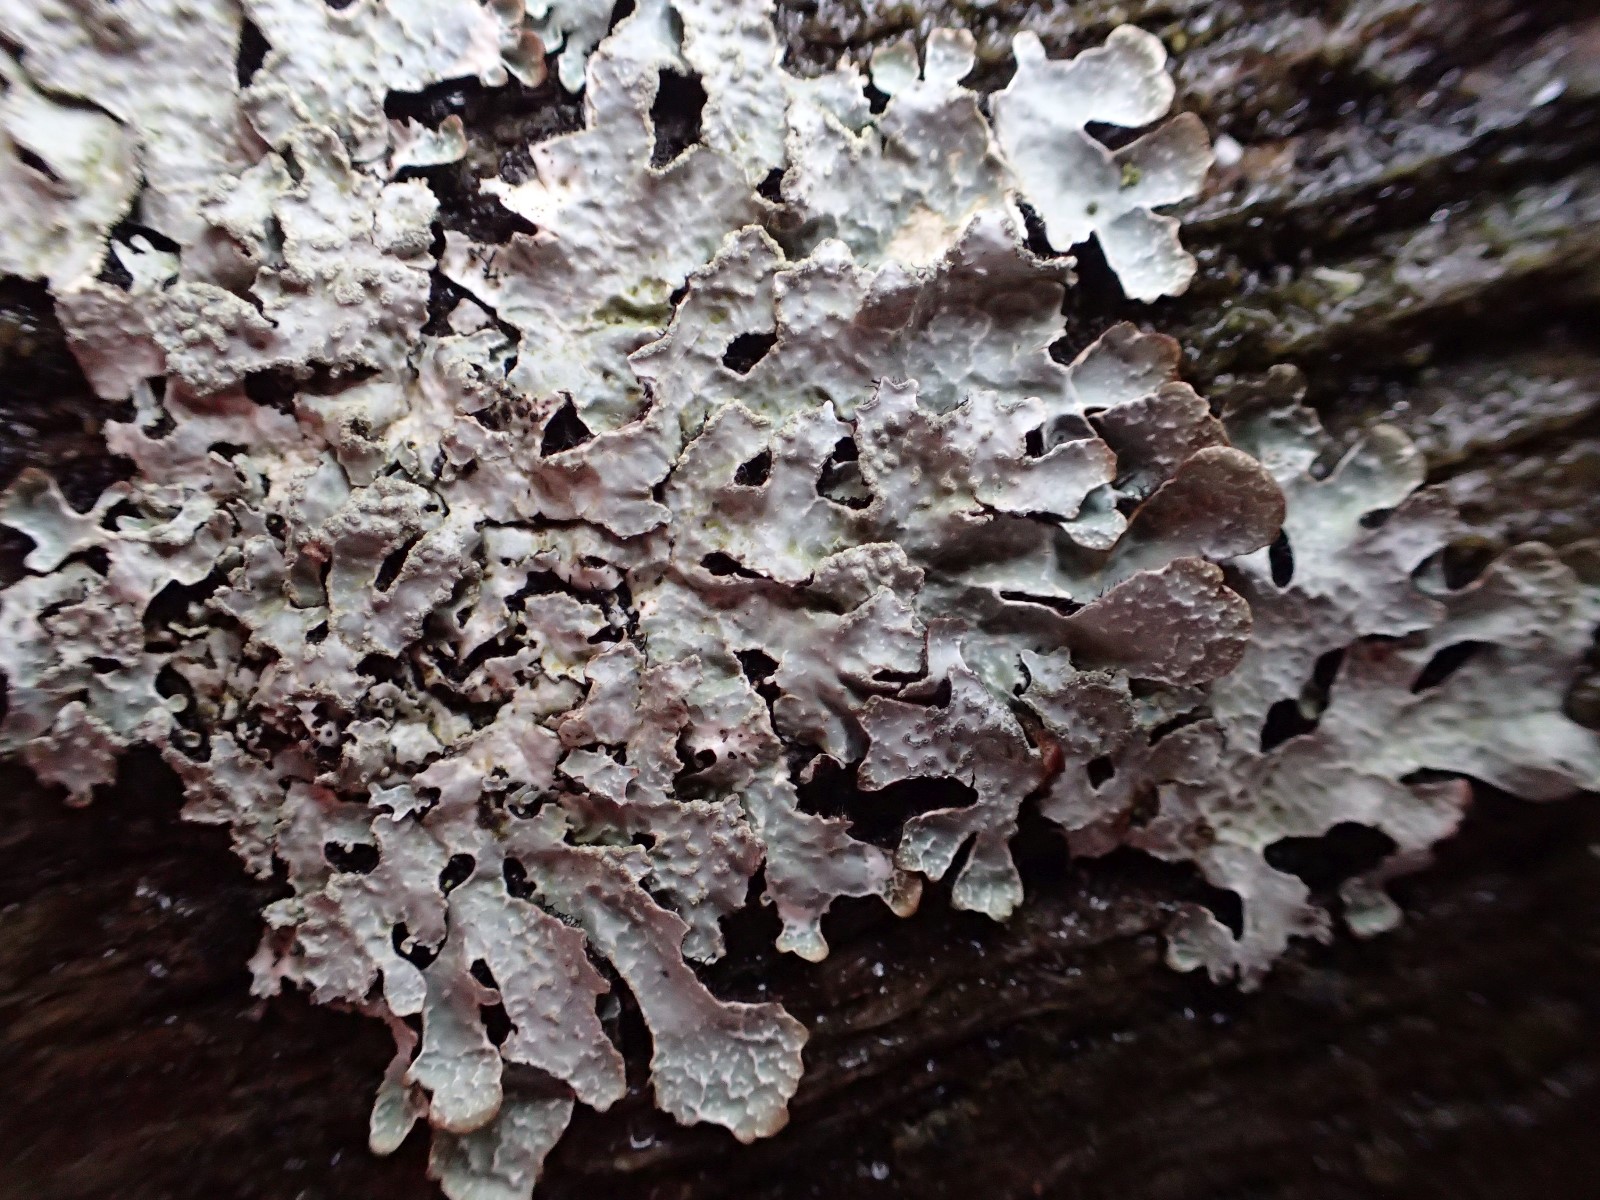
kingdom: Fungi
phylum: Ascomycota
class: Lecanoromycetes
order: Lecanorales
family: Parmeliaceae
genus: Parmelia
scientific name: Parmelia sulcata
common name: rynket skållav
